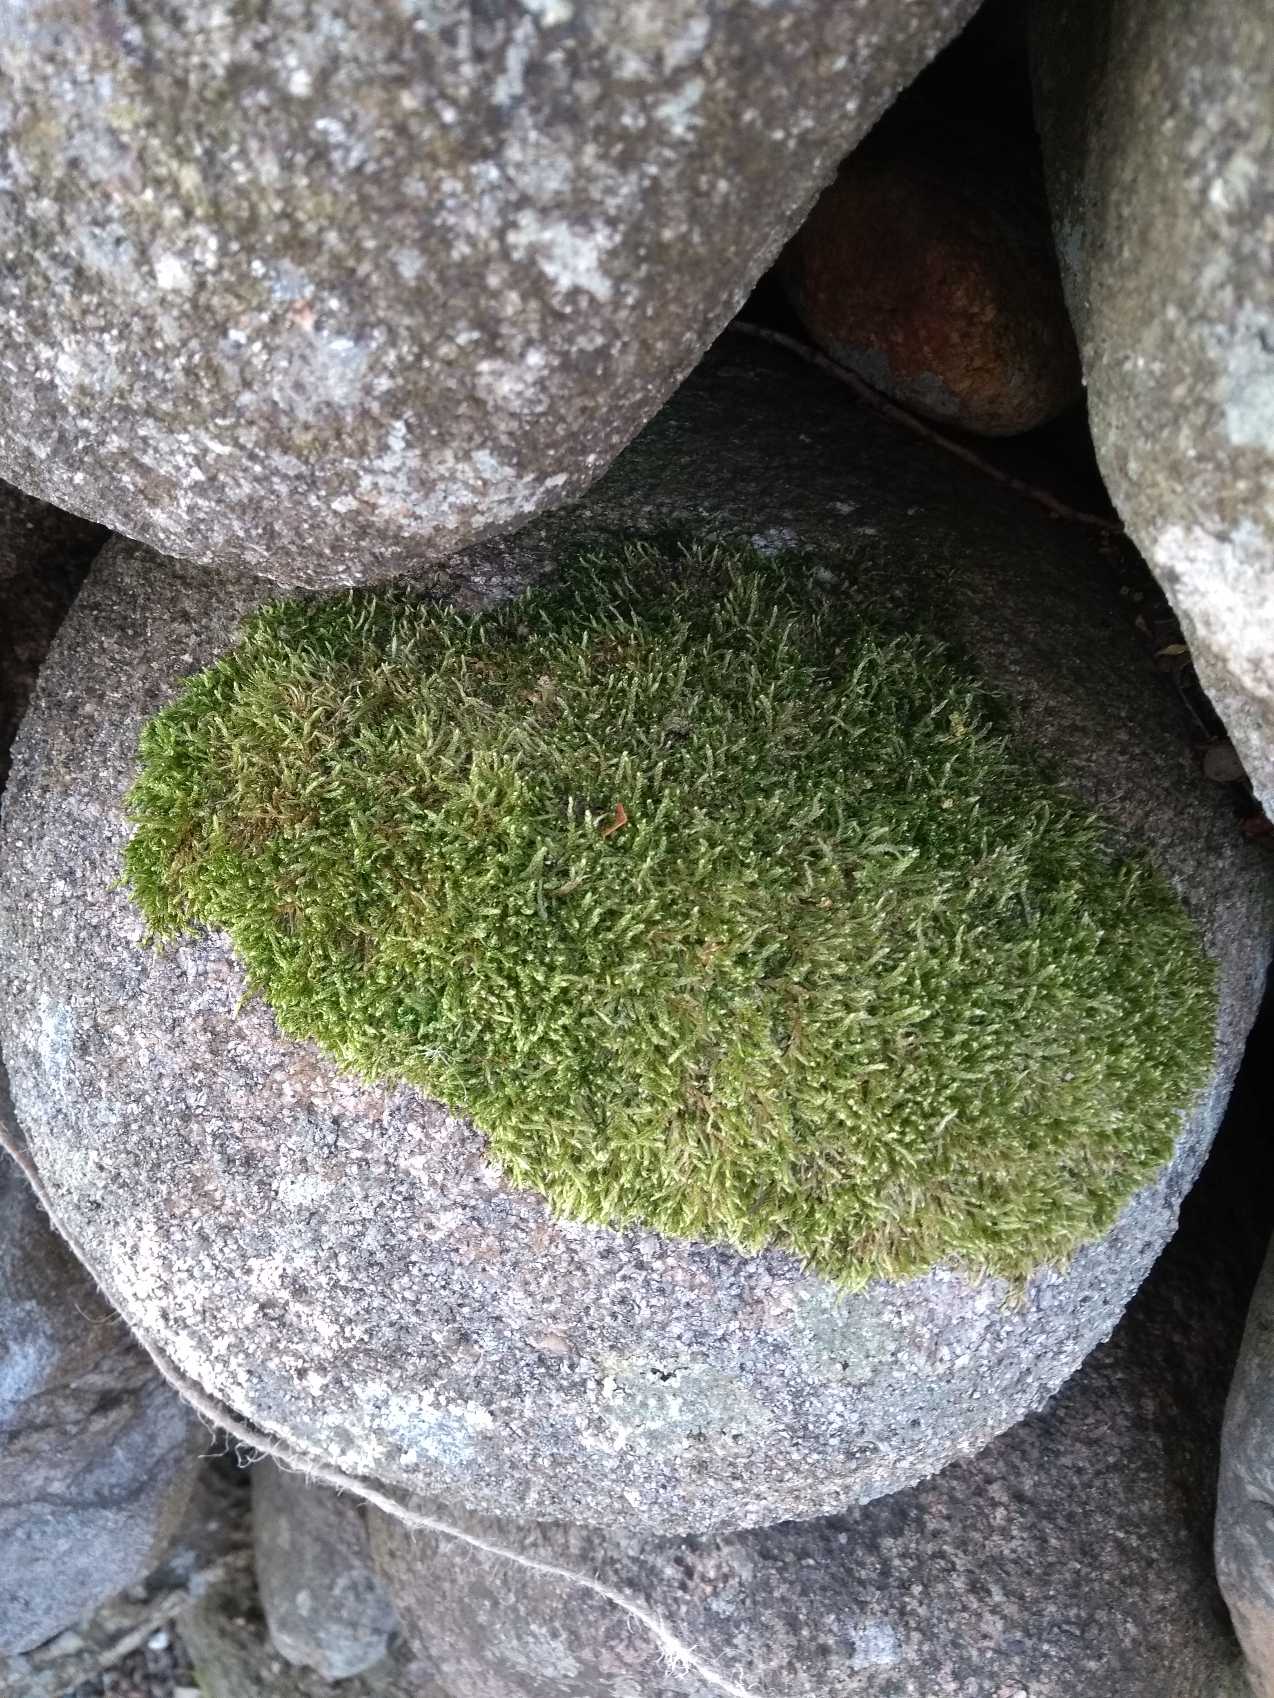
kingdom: Plantae
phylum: Bryophyta
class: Bryopsida
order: Hypnales
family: Hypnaceae
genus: Hypnum
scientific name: Hypnum cupressiforme
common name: Almindelig cypresmos
